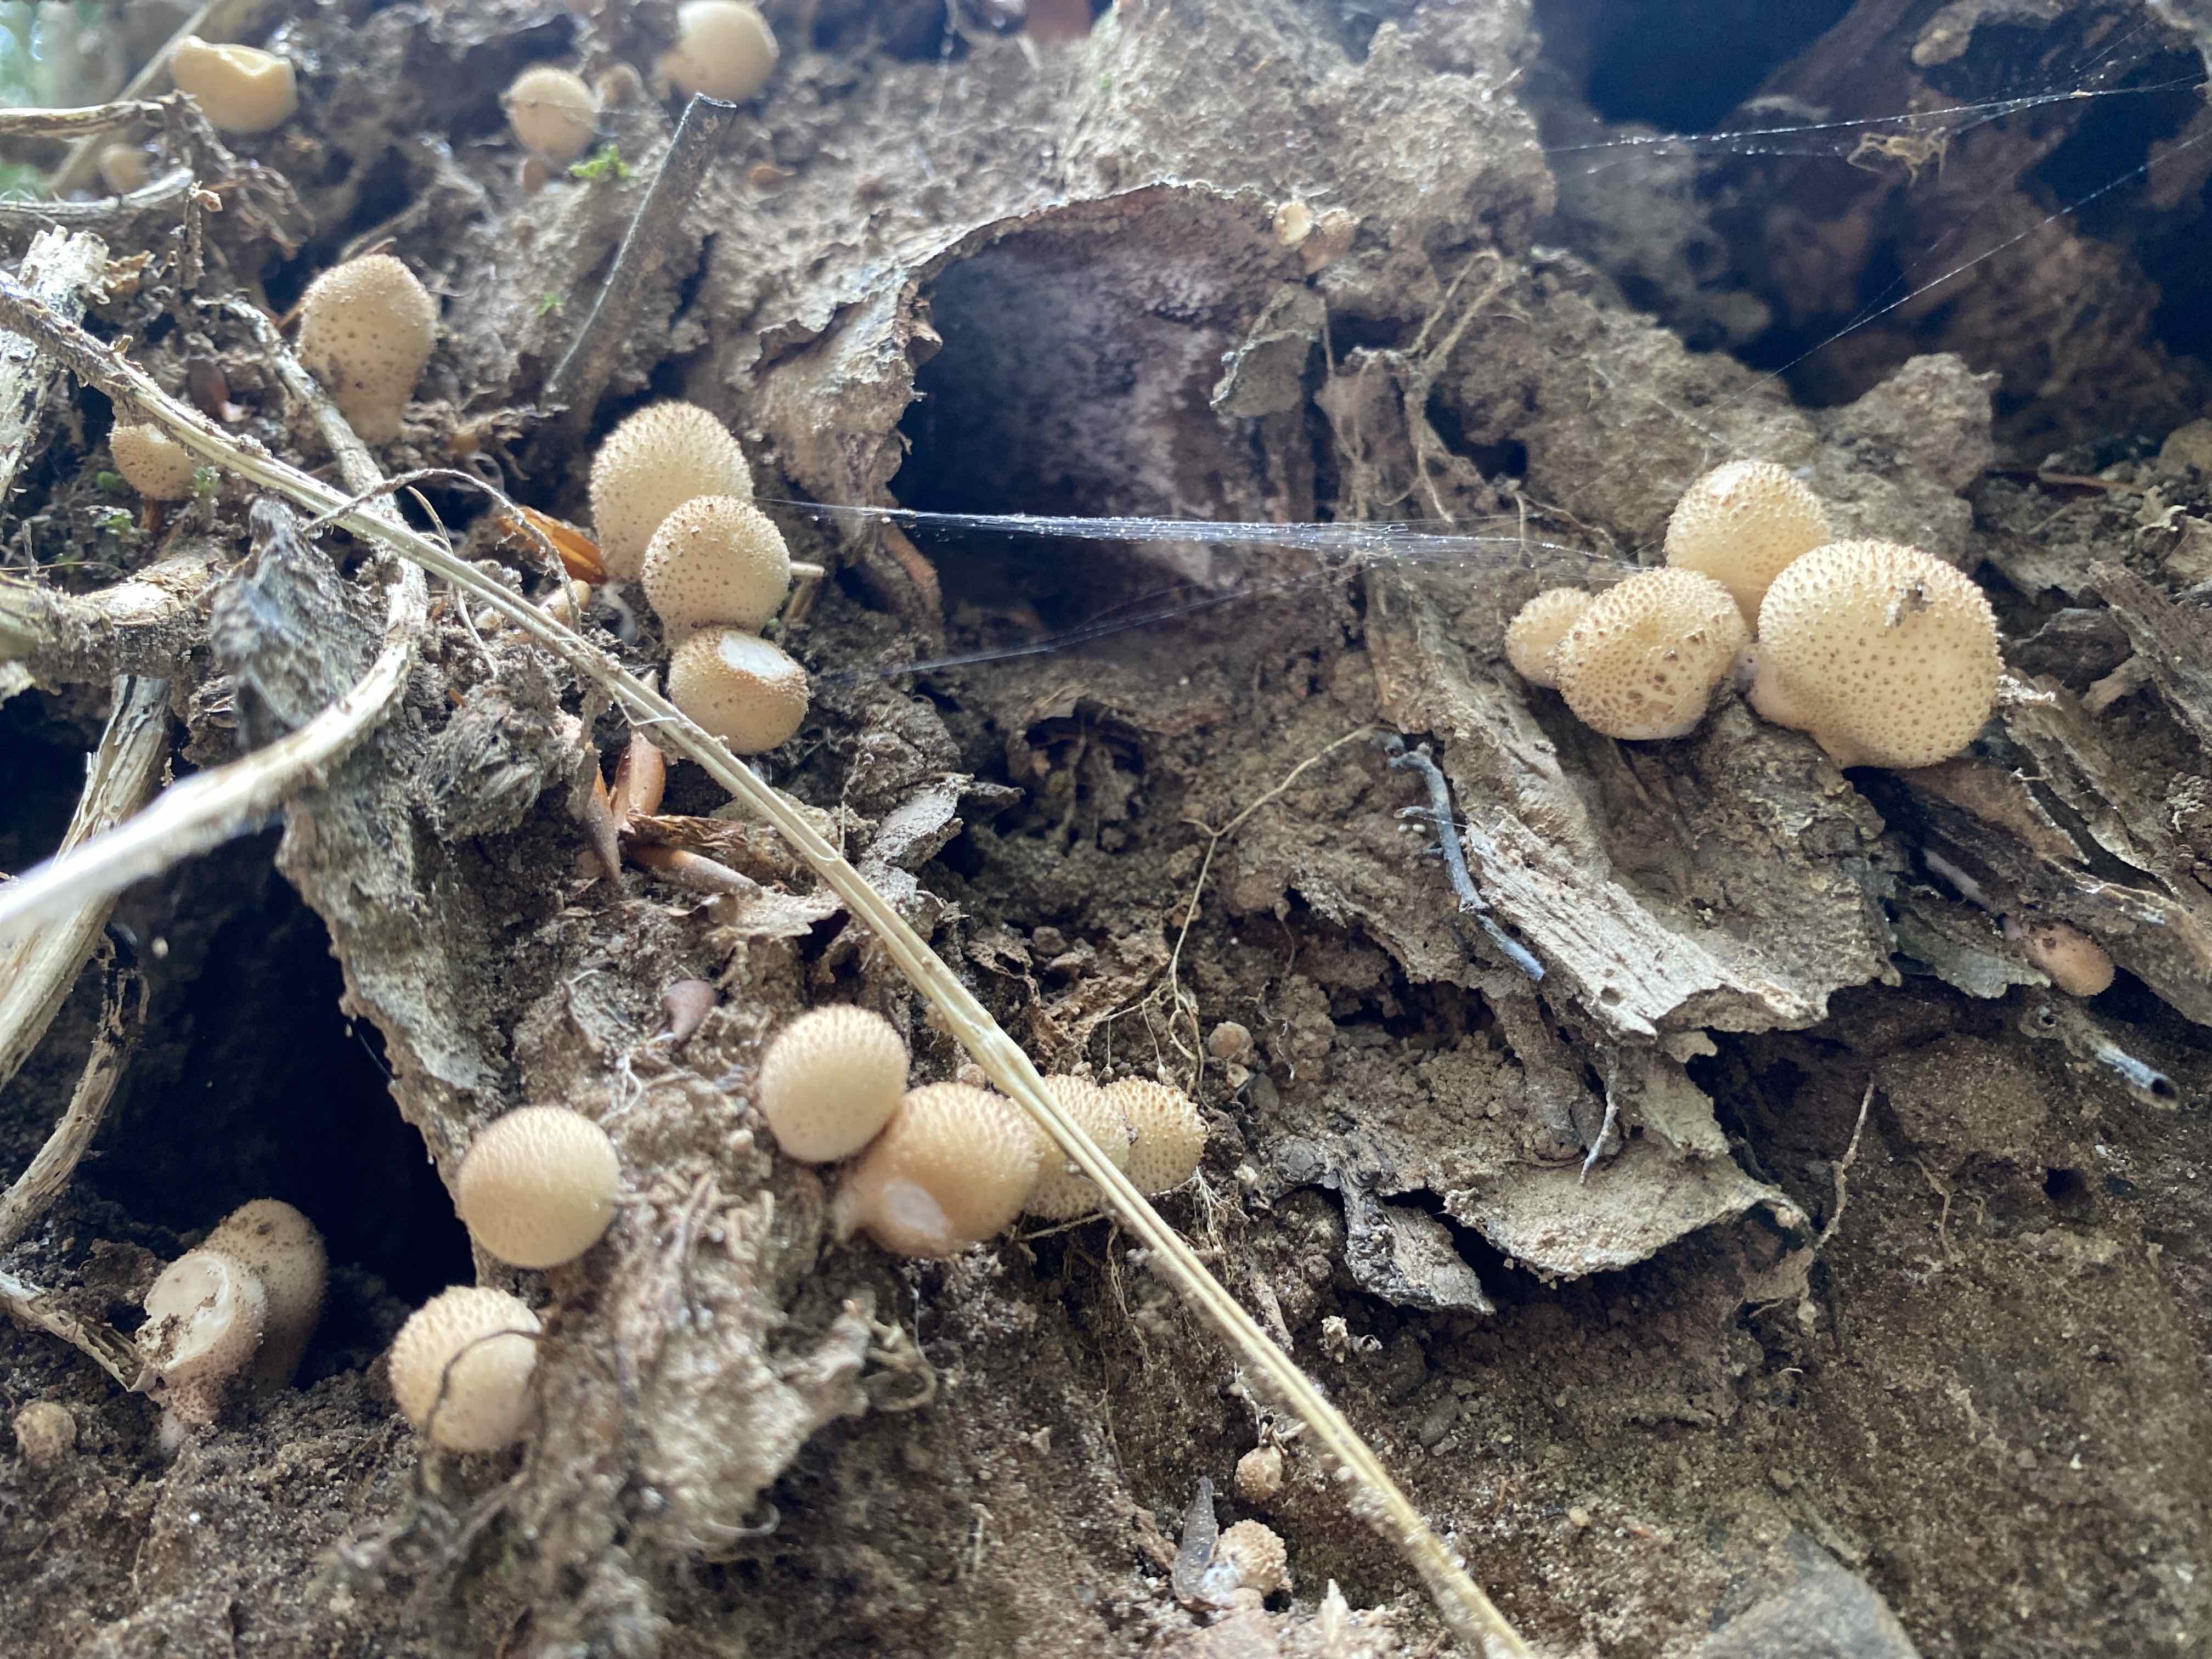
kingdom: Fungi
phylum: Basidiomycota
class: Agaricomycetes
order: Agaricales
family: Lycoperdaceae
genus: Apioperdon
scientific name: Apioperdon pyriforme
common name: pære-støvbold
